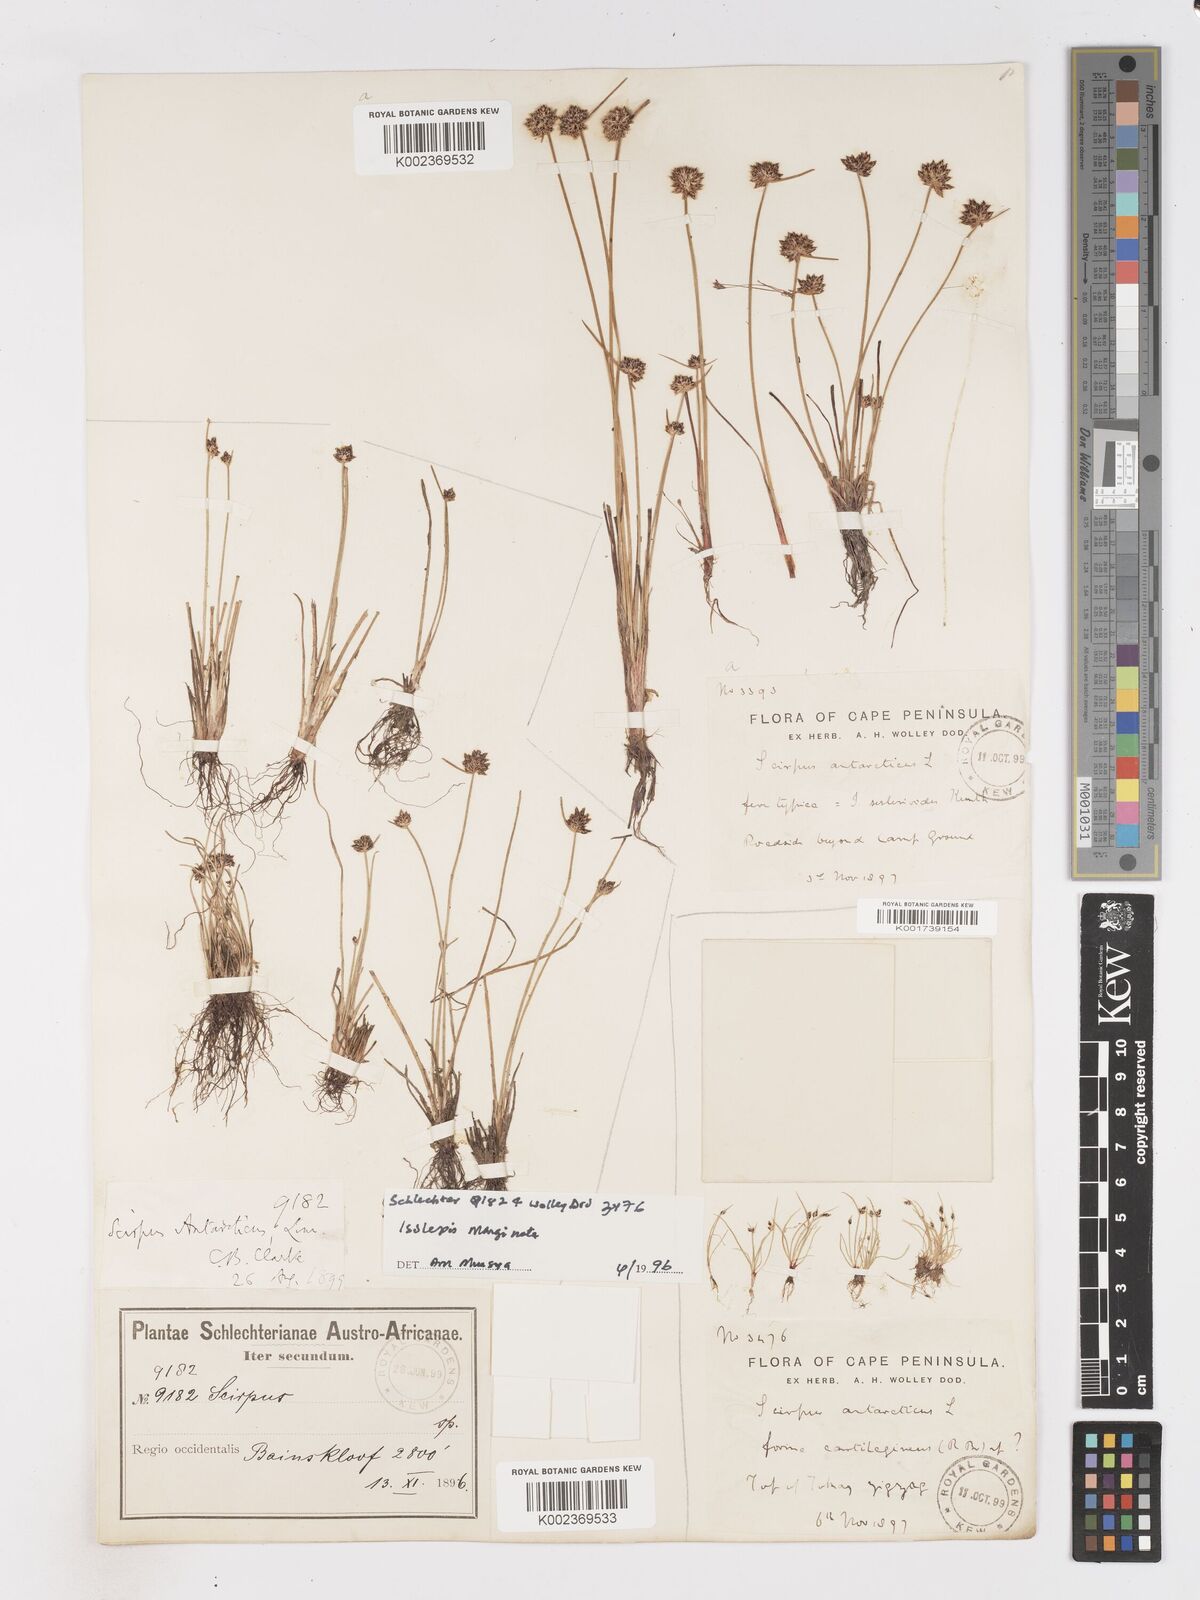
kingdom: Plantae
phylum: Tracheophyta
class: Liliopsida
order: Poales
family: Cyperaceae
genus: Isolepis
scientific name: Isolepis antarctica
